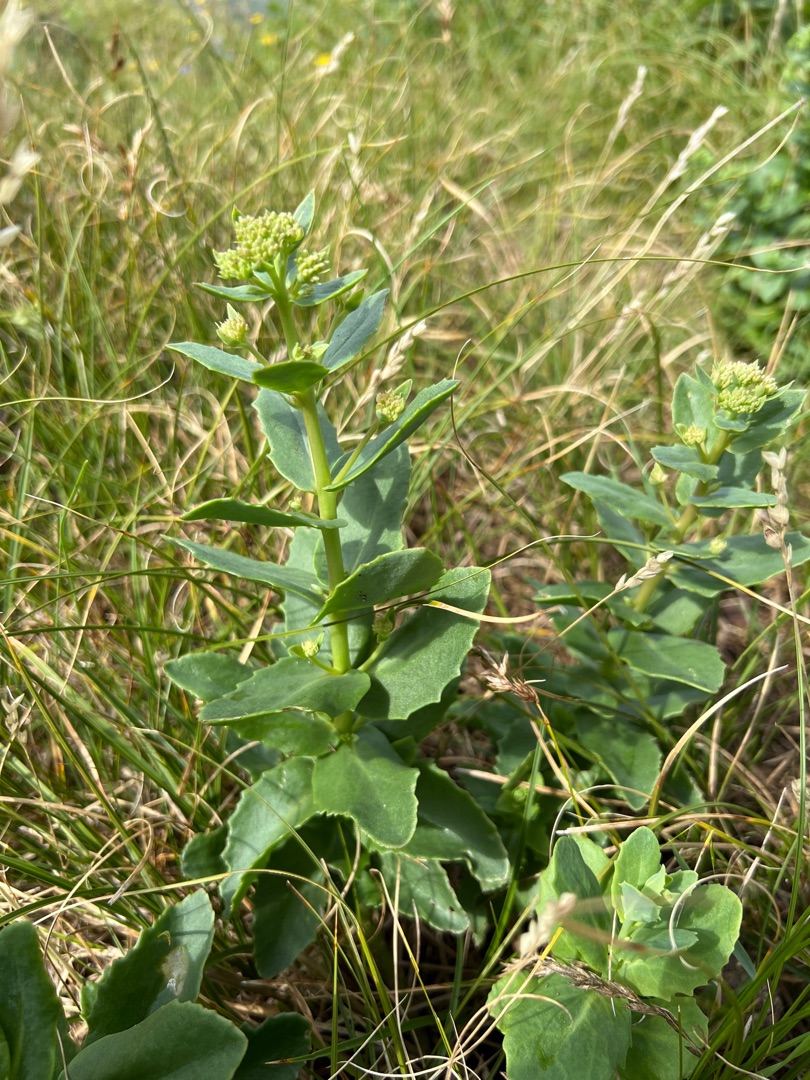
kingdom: Plantae
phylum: Tracheophyta
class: Magnoliopsida
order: Saxifragales
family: Crassulaceae
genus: Hylotelephium
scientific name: Hylotelephium maximum
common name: Almindelig sankthansurt
